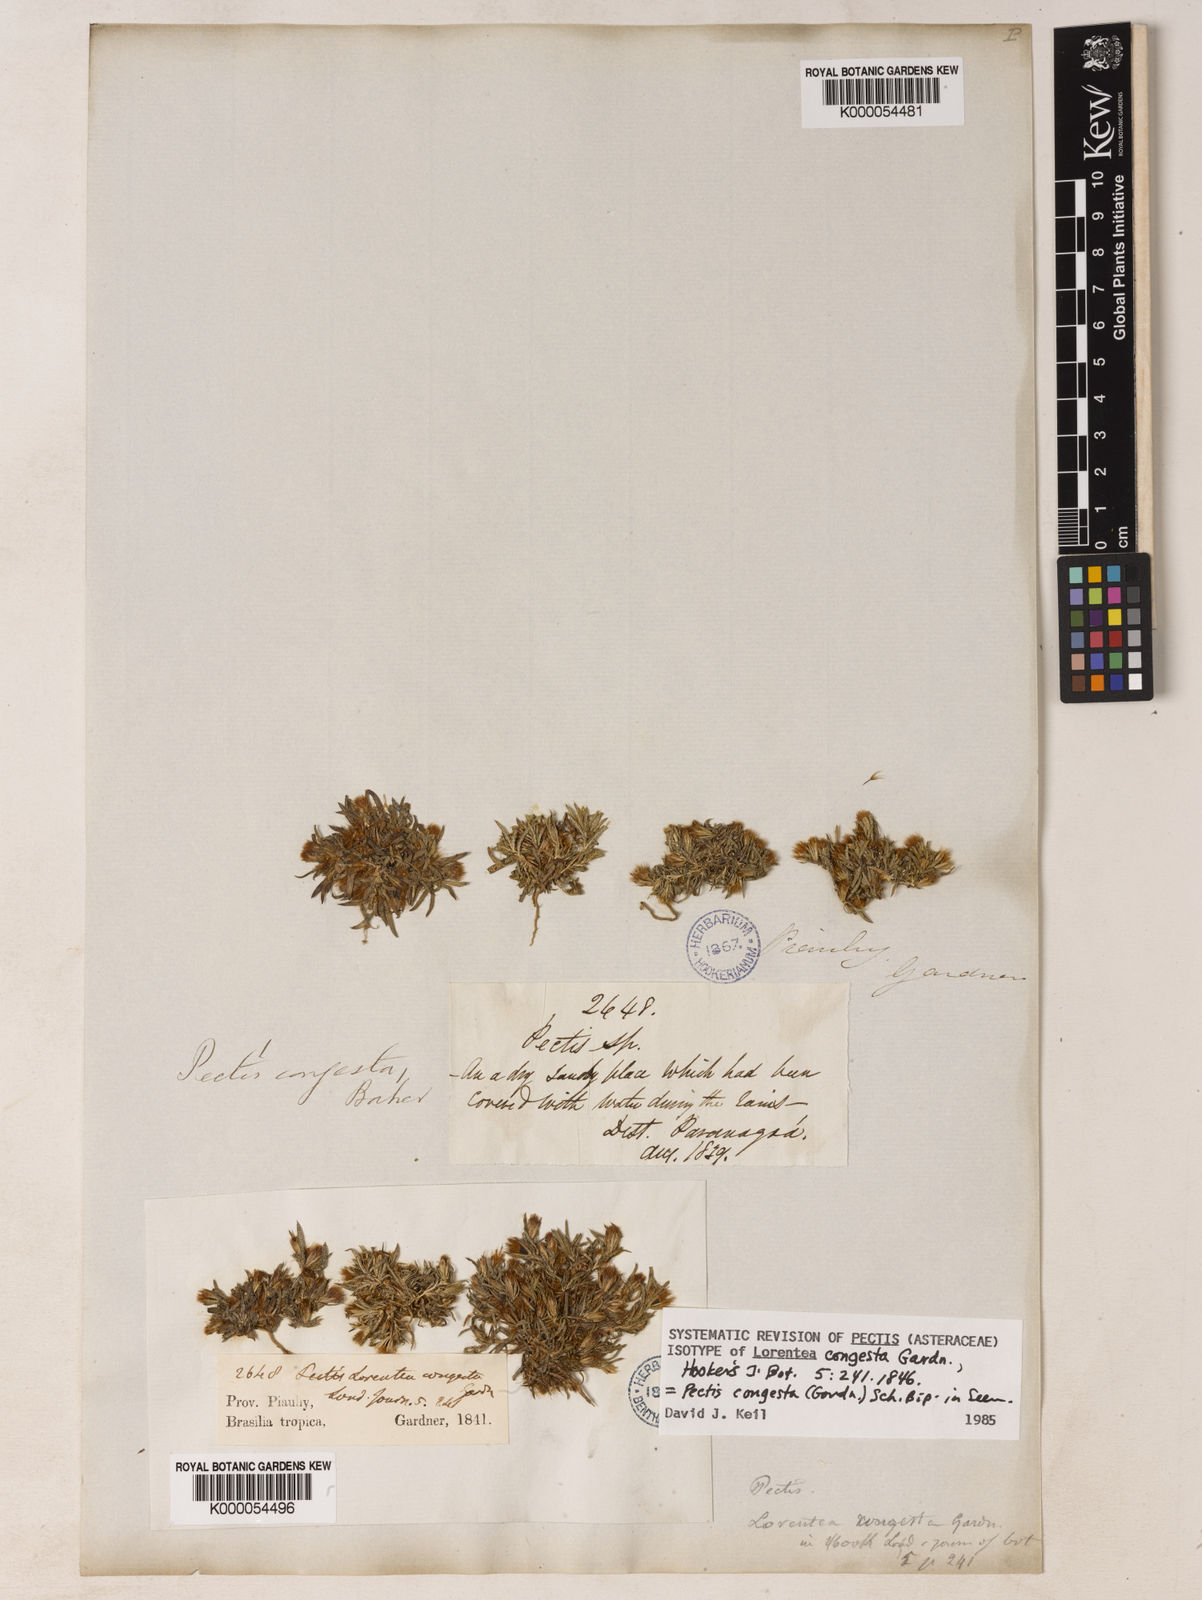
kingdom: Plantae
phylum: Tracheophyta
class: Magnoliopsida
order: Asterales
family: Asteraceae
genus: Pectis
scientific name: Pectis congesta
